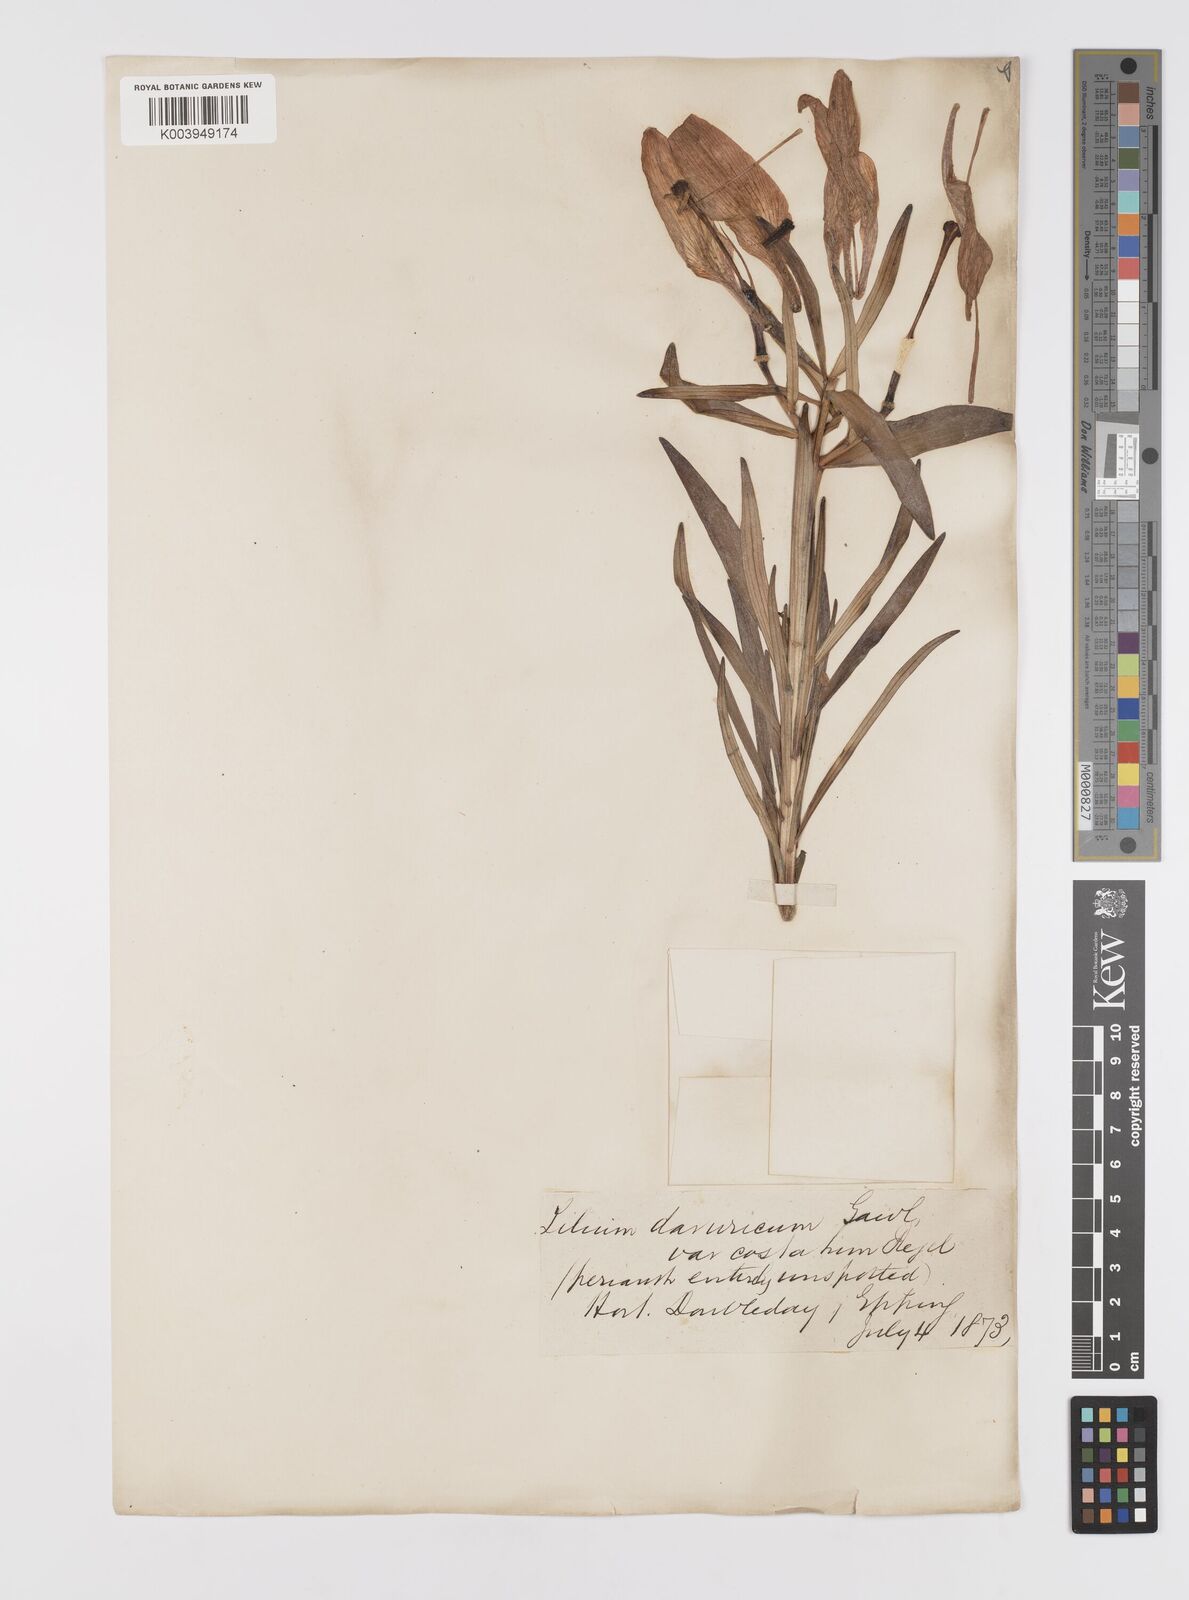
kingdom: Plantae
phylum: Tracheophyta
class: Liliopsida
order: Liliales
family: Liliaceae
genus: Lilium
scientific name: Lilium pensylvanicum
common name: Candlestick lily
